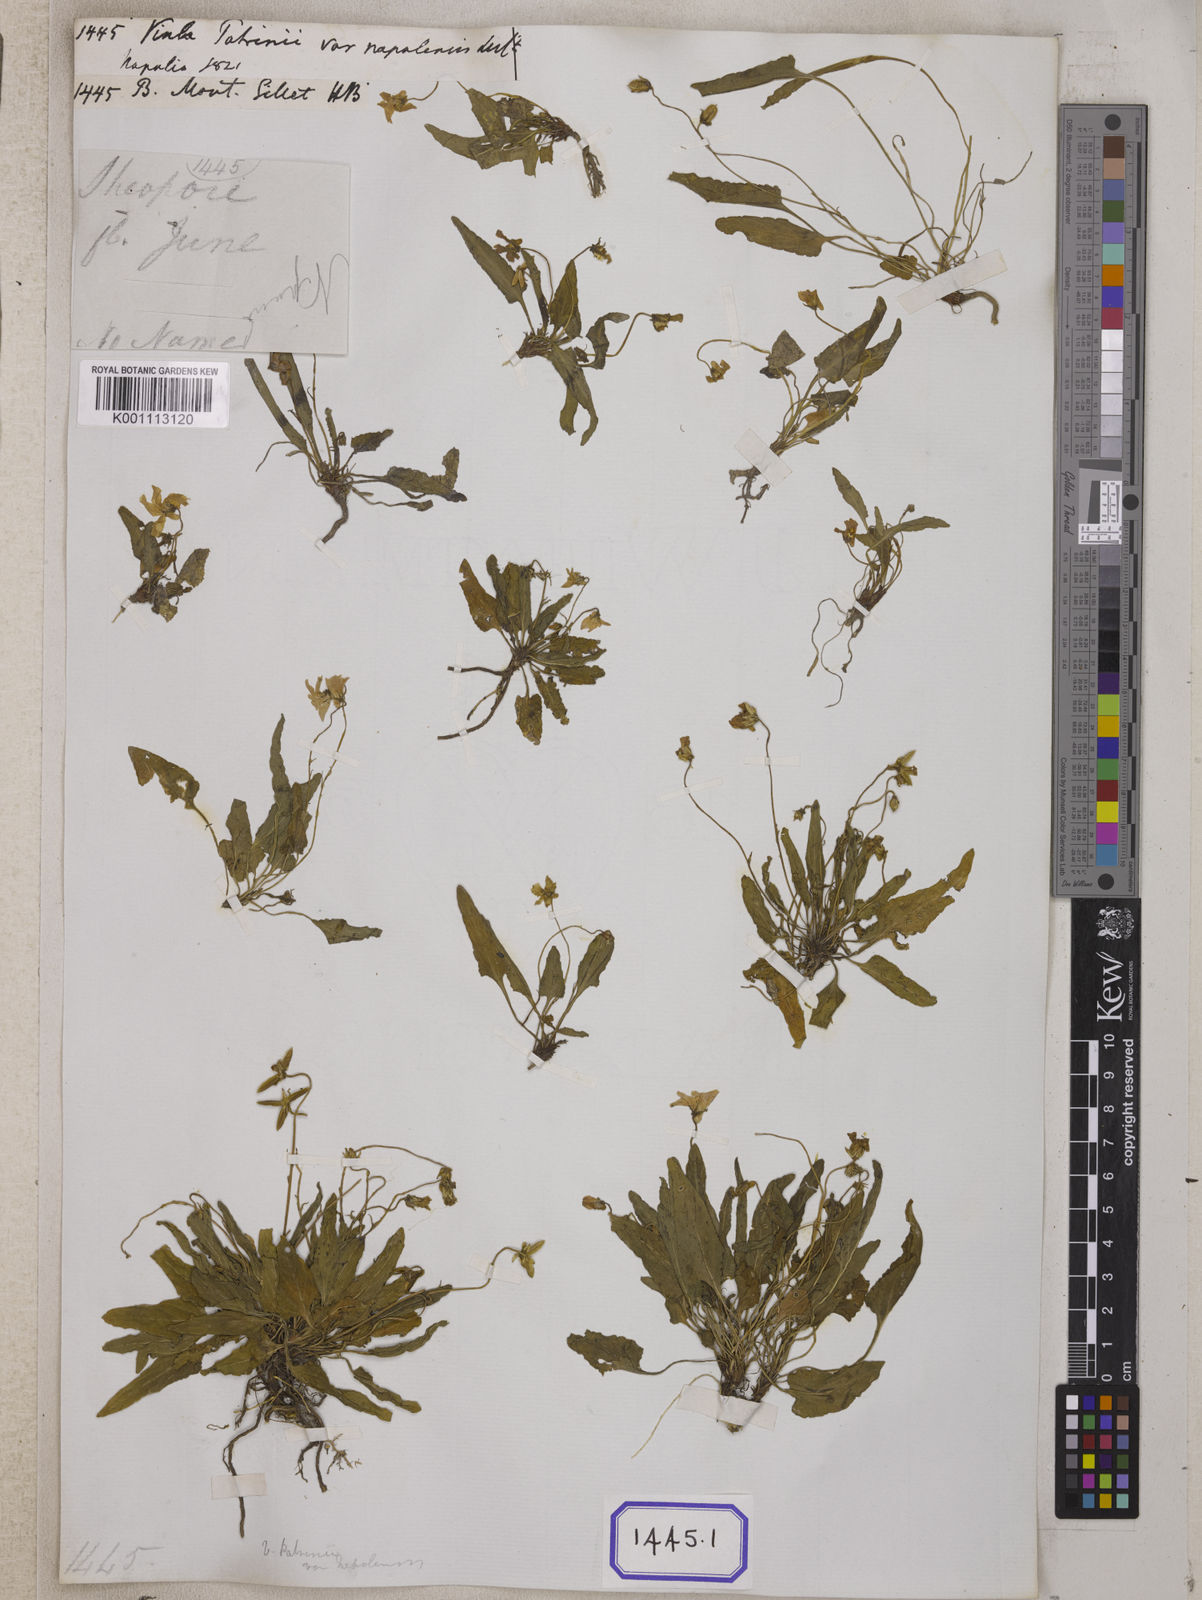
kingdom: Plantae
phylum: Tracheophyta
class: Magnoliopsida
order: Malpighiales
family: Violaceae
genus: Viola
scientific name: Viola
